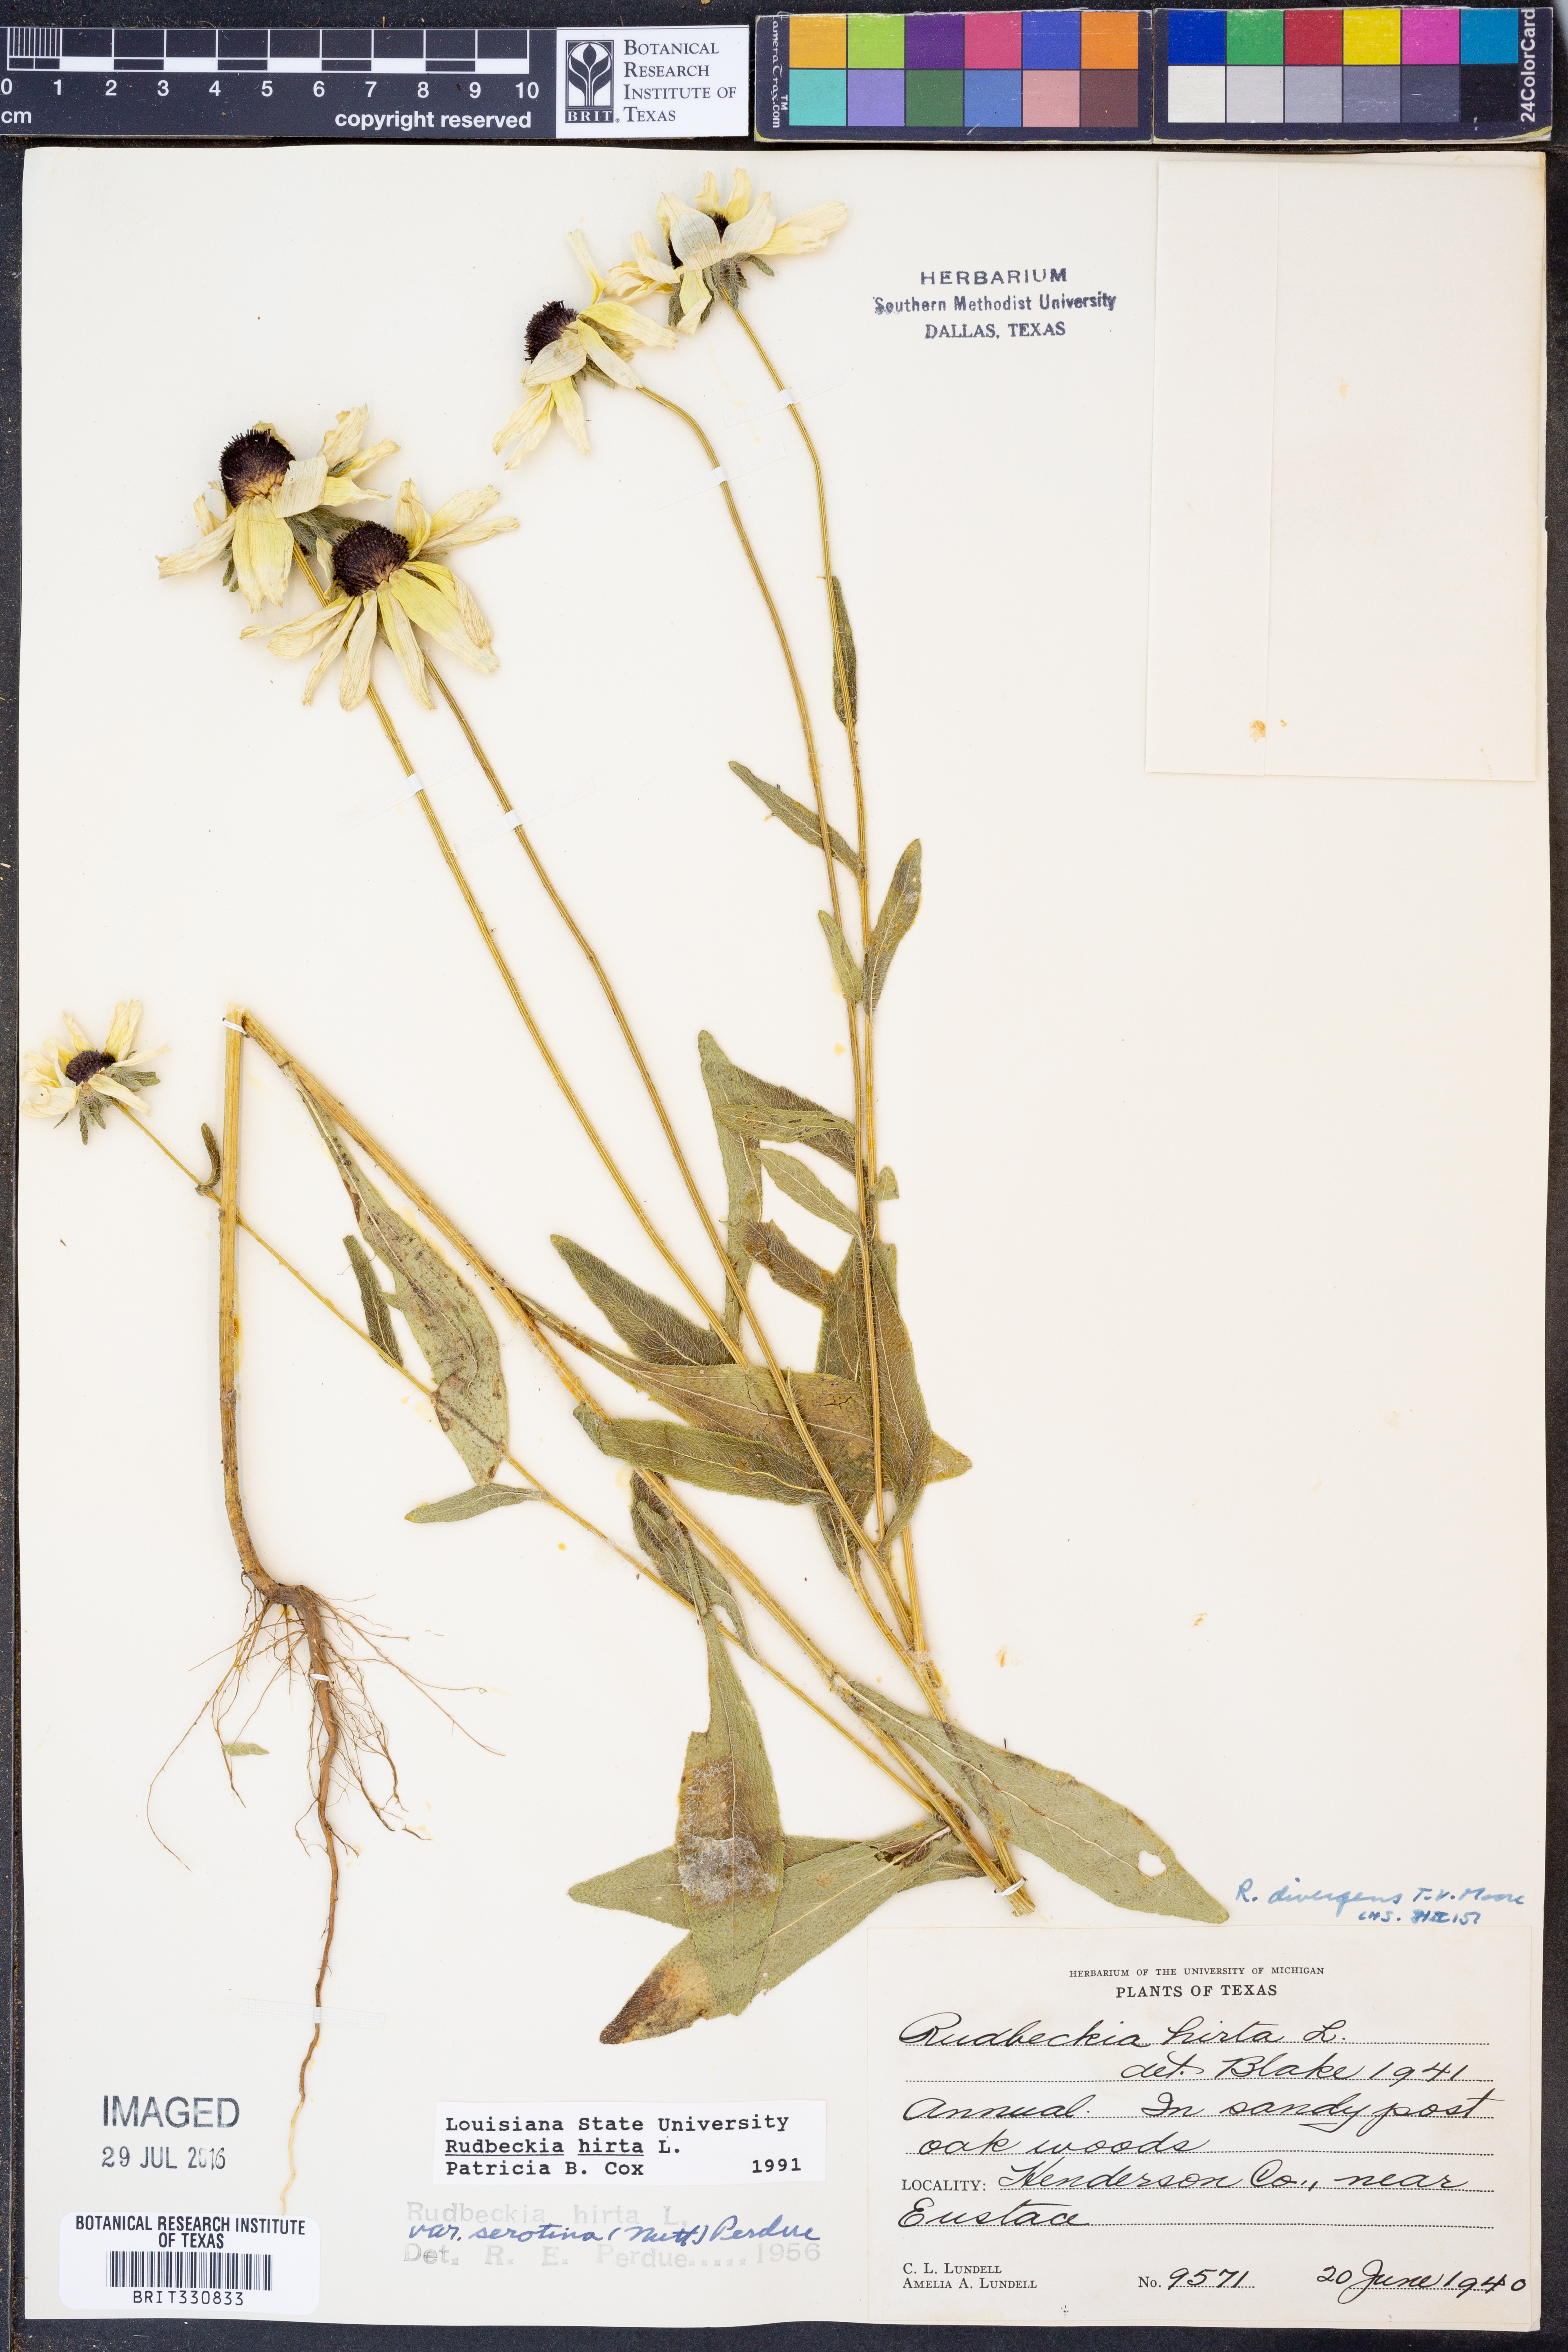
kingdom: Plantae
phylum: Tracheophyta
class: Magnoliopsida
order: Asterales
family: Asteraceae
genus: Rudbeckia
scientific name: Rudbeckia hirta
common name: Black-eyed-susan
